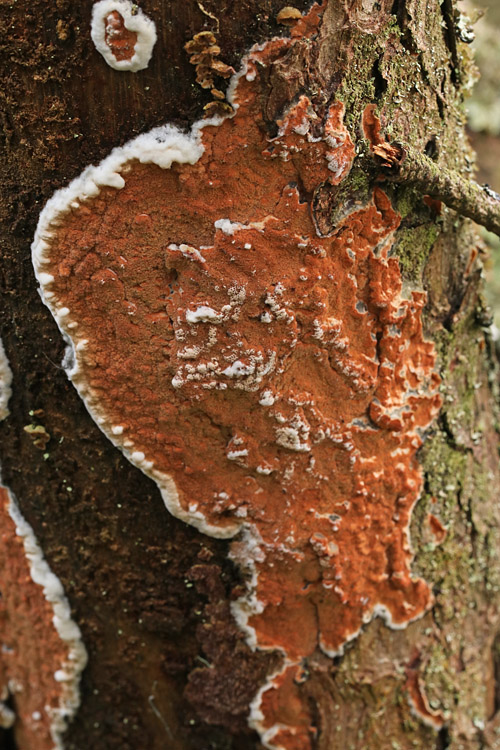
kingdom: Fungi
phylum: Basidiomycota
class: Agaricomycetes
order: Polyporales
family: Irpicaceae
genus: Meruliopsis
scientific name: Meruliopsis taxicola
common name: purpurbrun foldporesvamp
